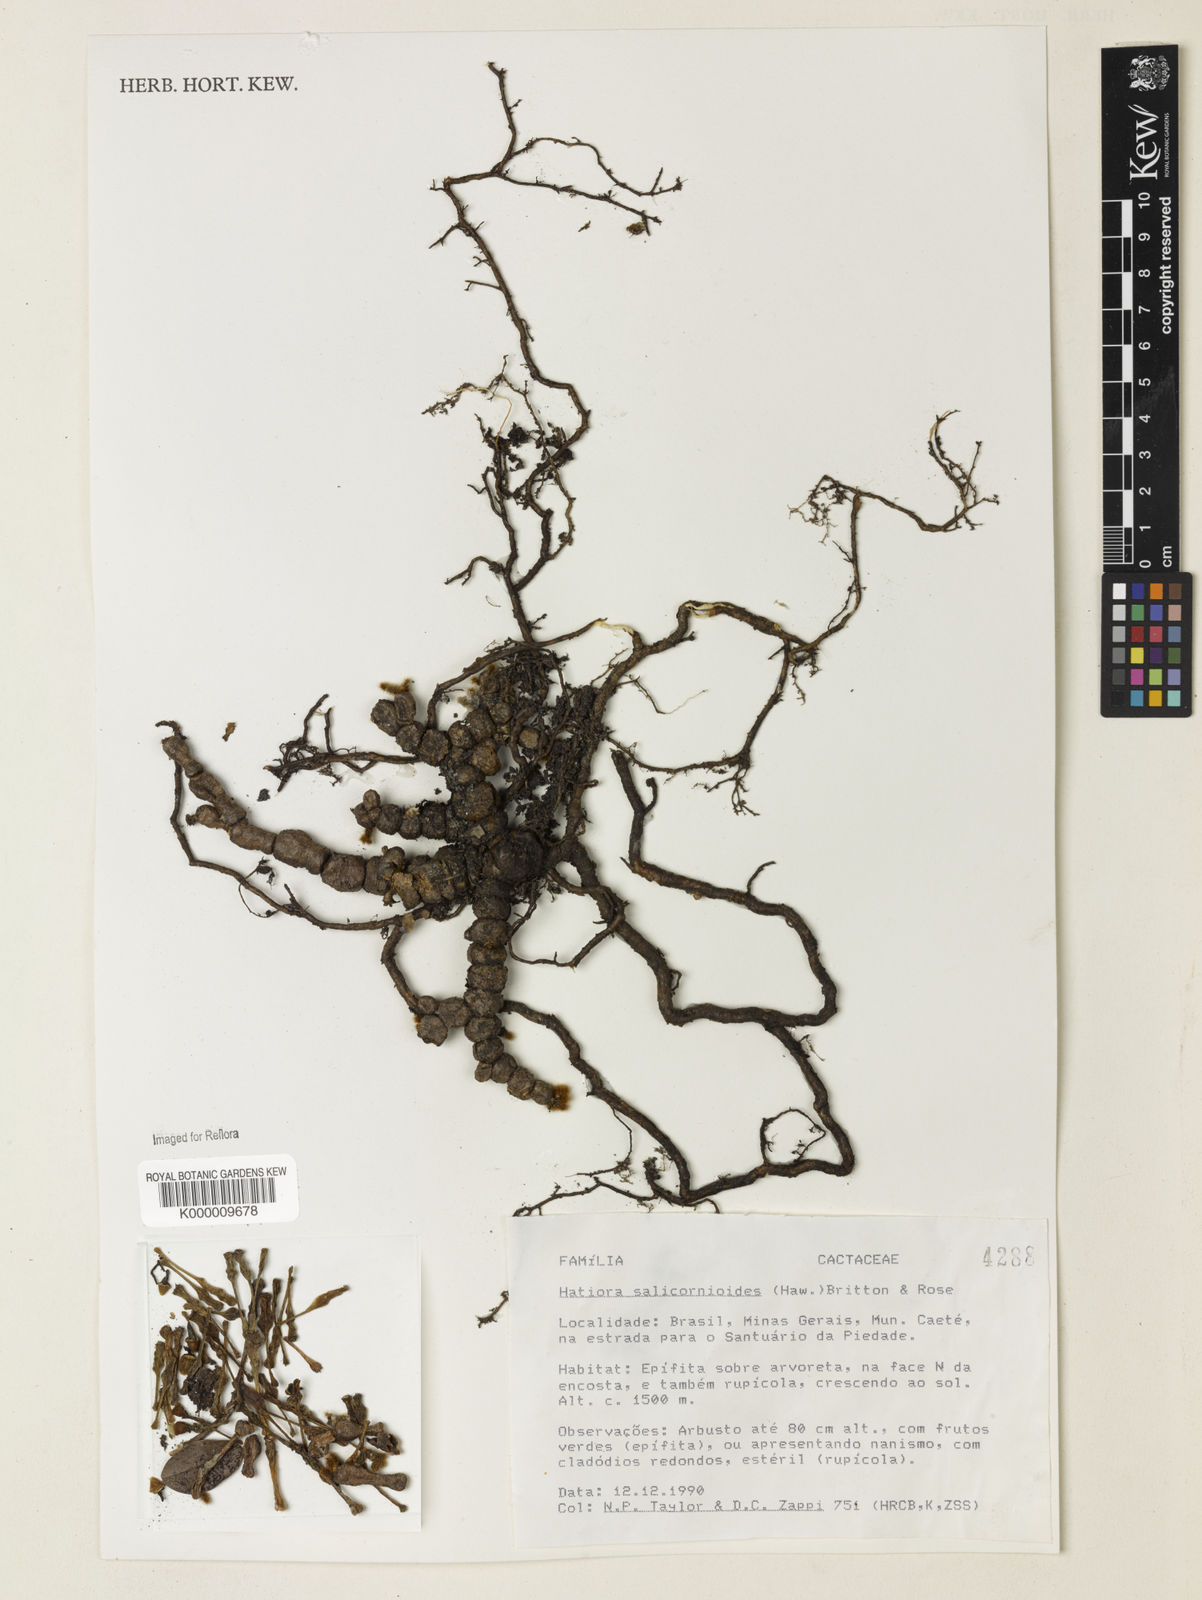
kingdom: Plantae
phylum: Tracheophyta
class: Magnoliopsida
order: Caryophyllales
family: Cactaceae
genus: Hatiora
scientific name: Hatiora
